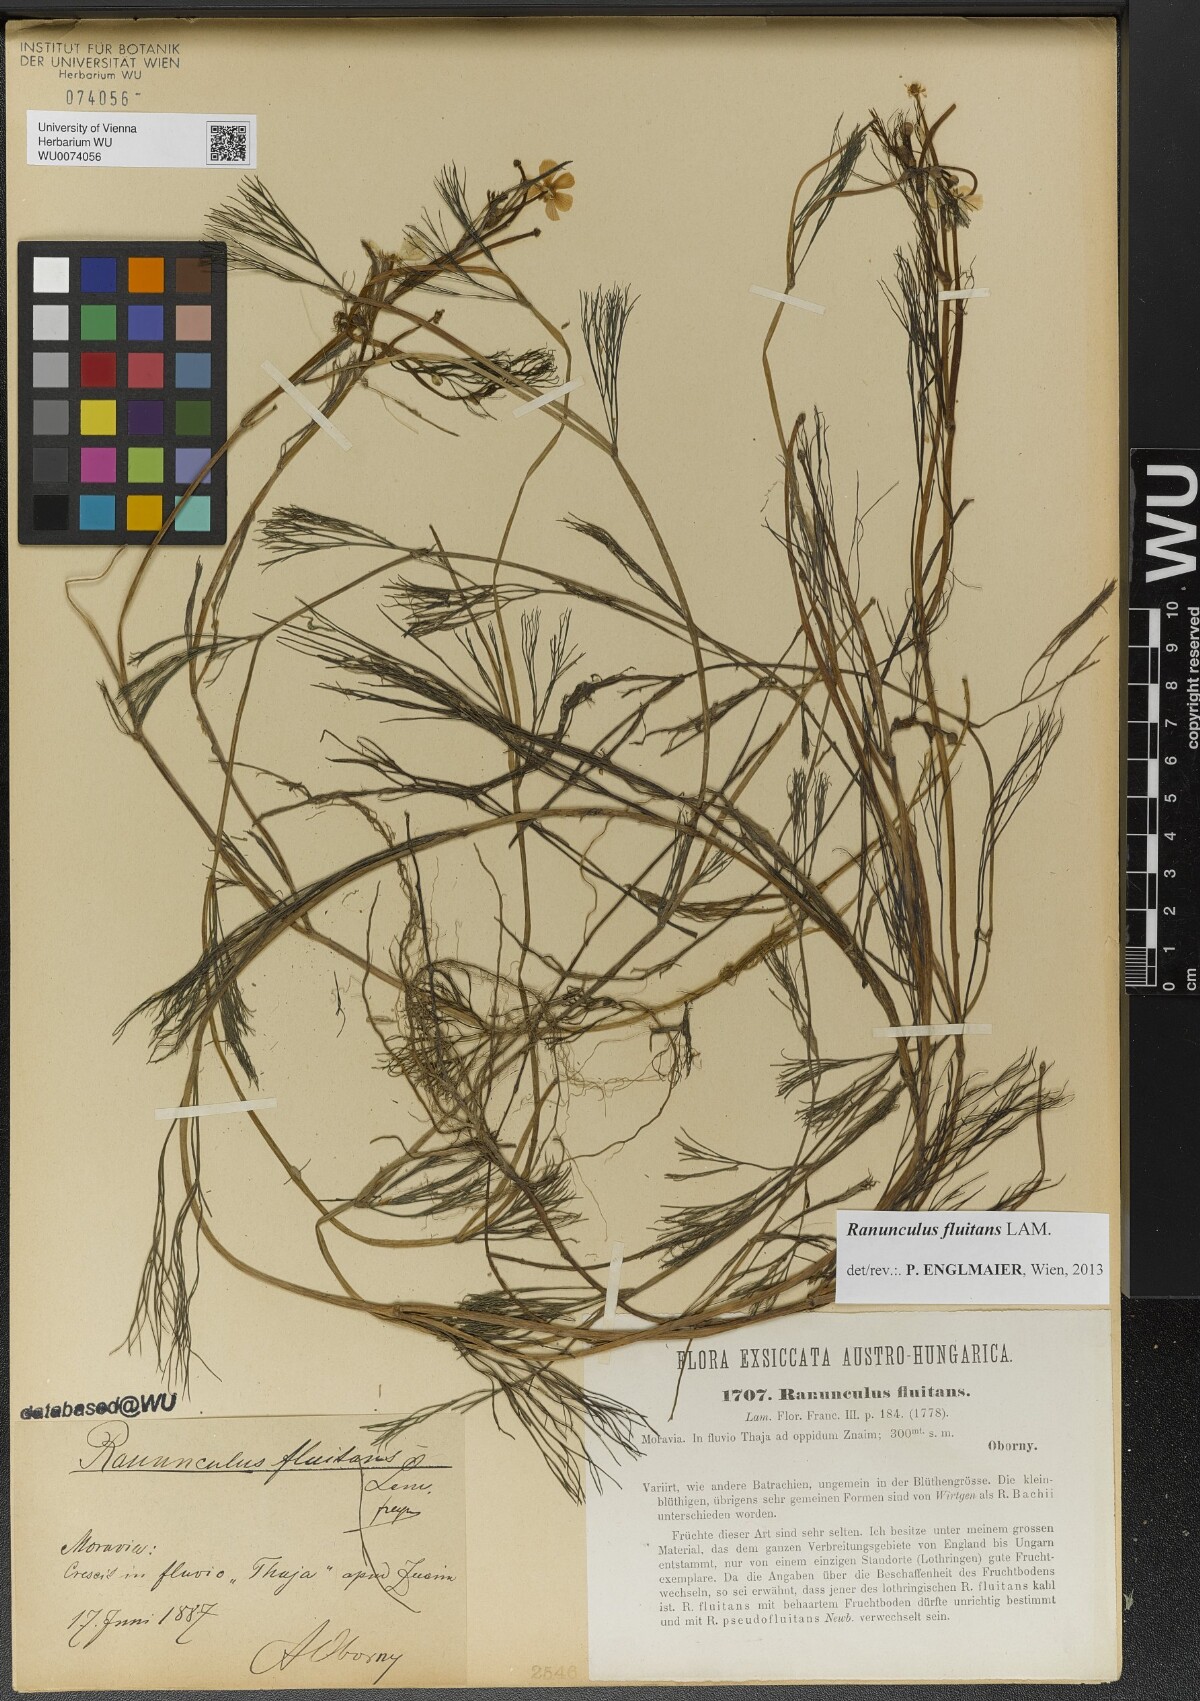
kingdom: Plantae
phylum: Tracheophyta
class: Magnoliopsida
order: Ranunculales
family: Ranunculaceae
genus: Ranunculus
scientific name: Ranunculus fluitans
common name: River water-crowfoot
